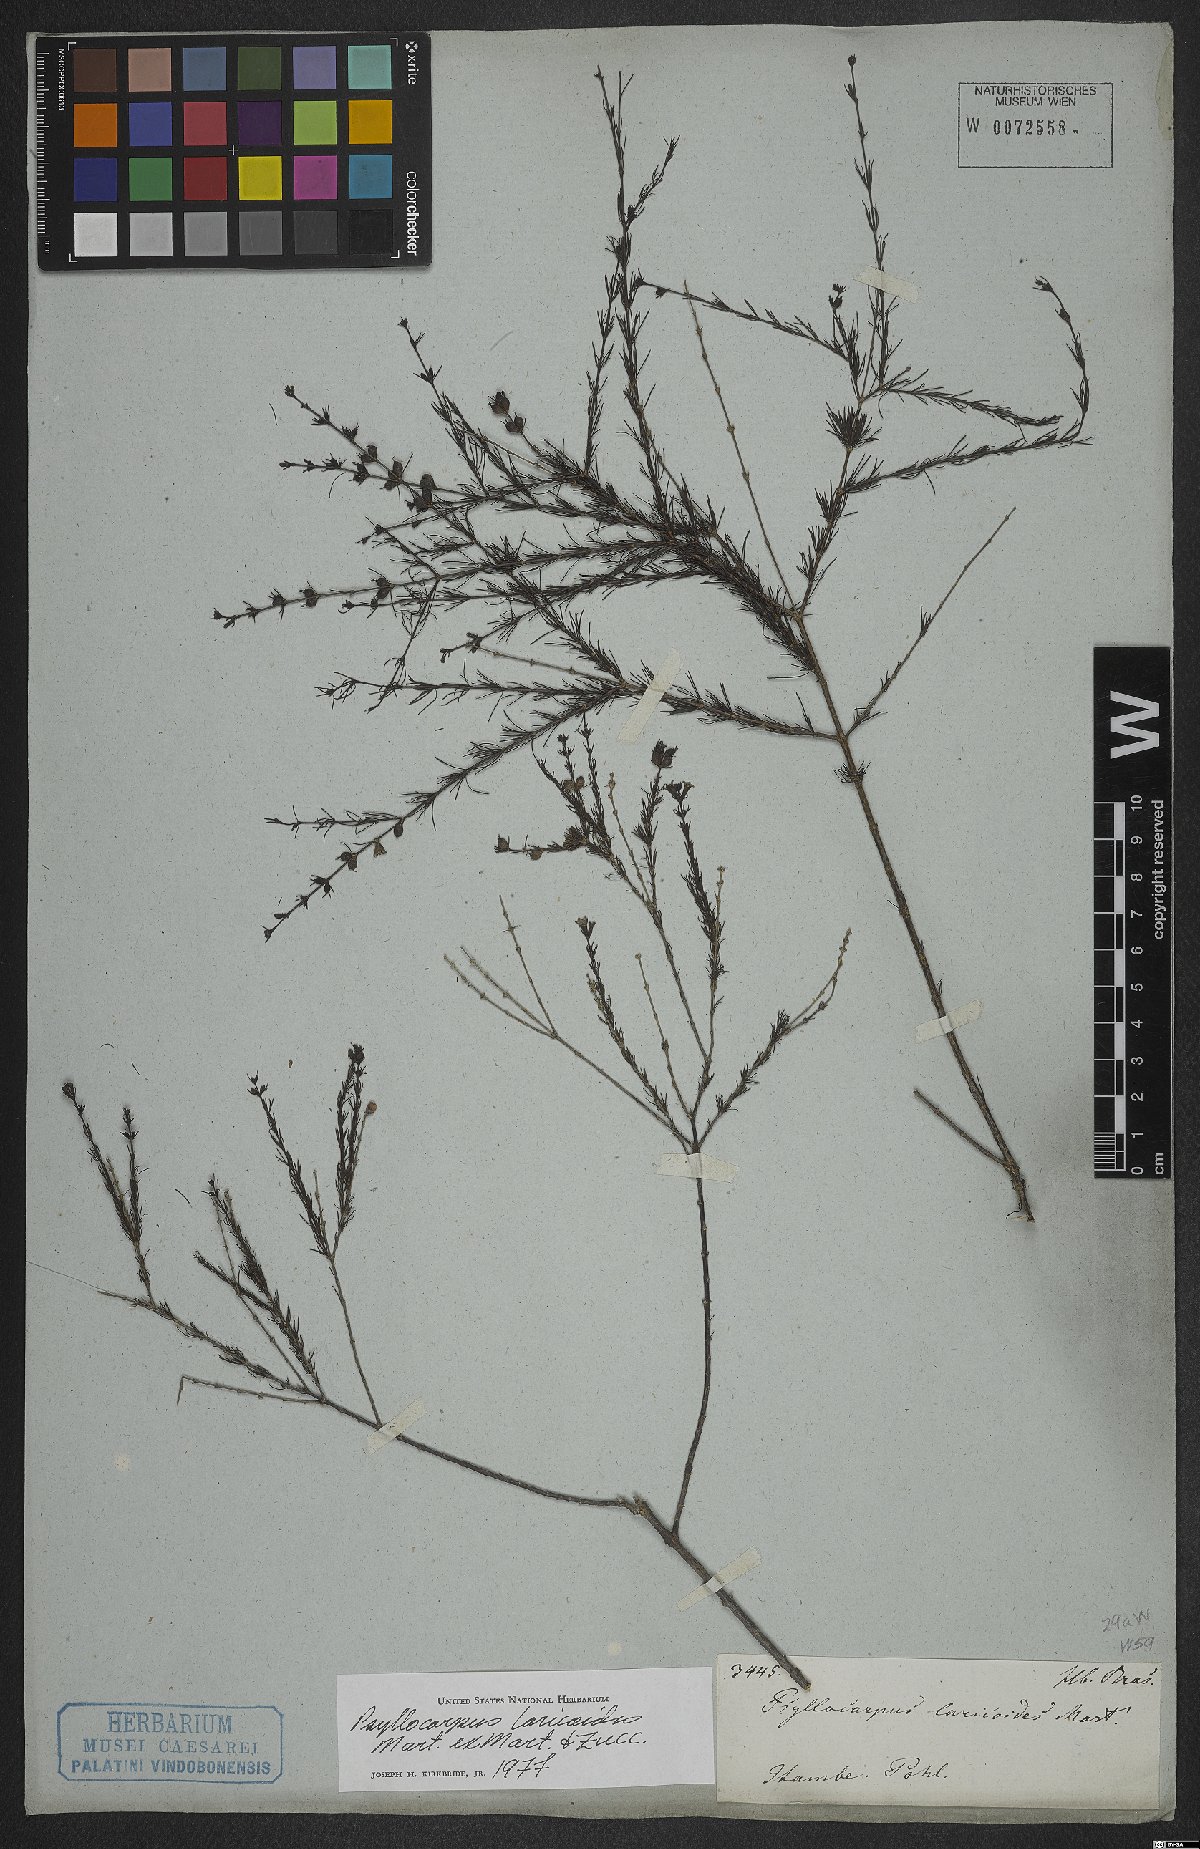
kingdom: Plantae
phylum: Tracheophyta
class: Magnoliopsida
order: Gentianales
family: Rubiaceae
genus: Psyllocarpus
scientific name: Psyllocarpus laricoides
